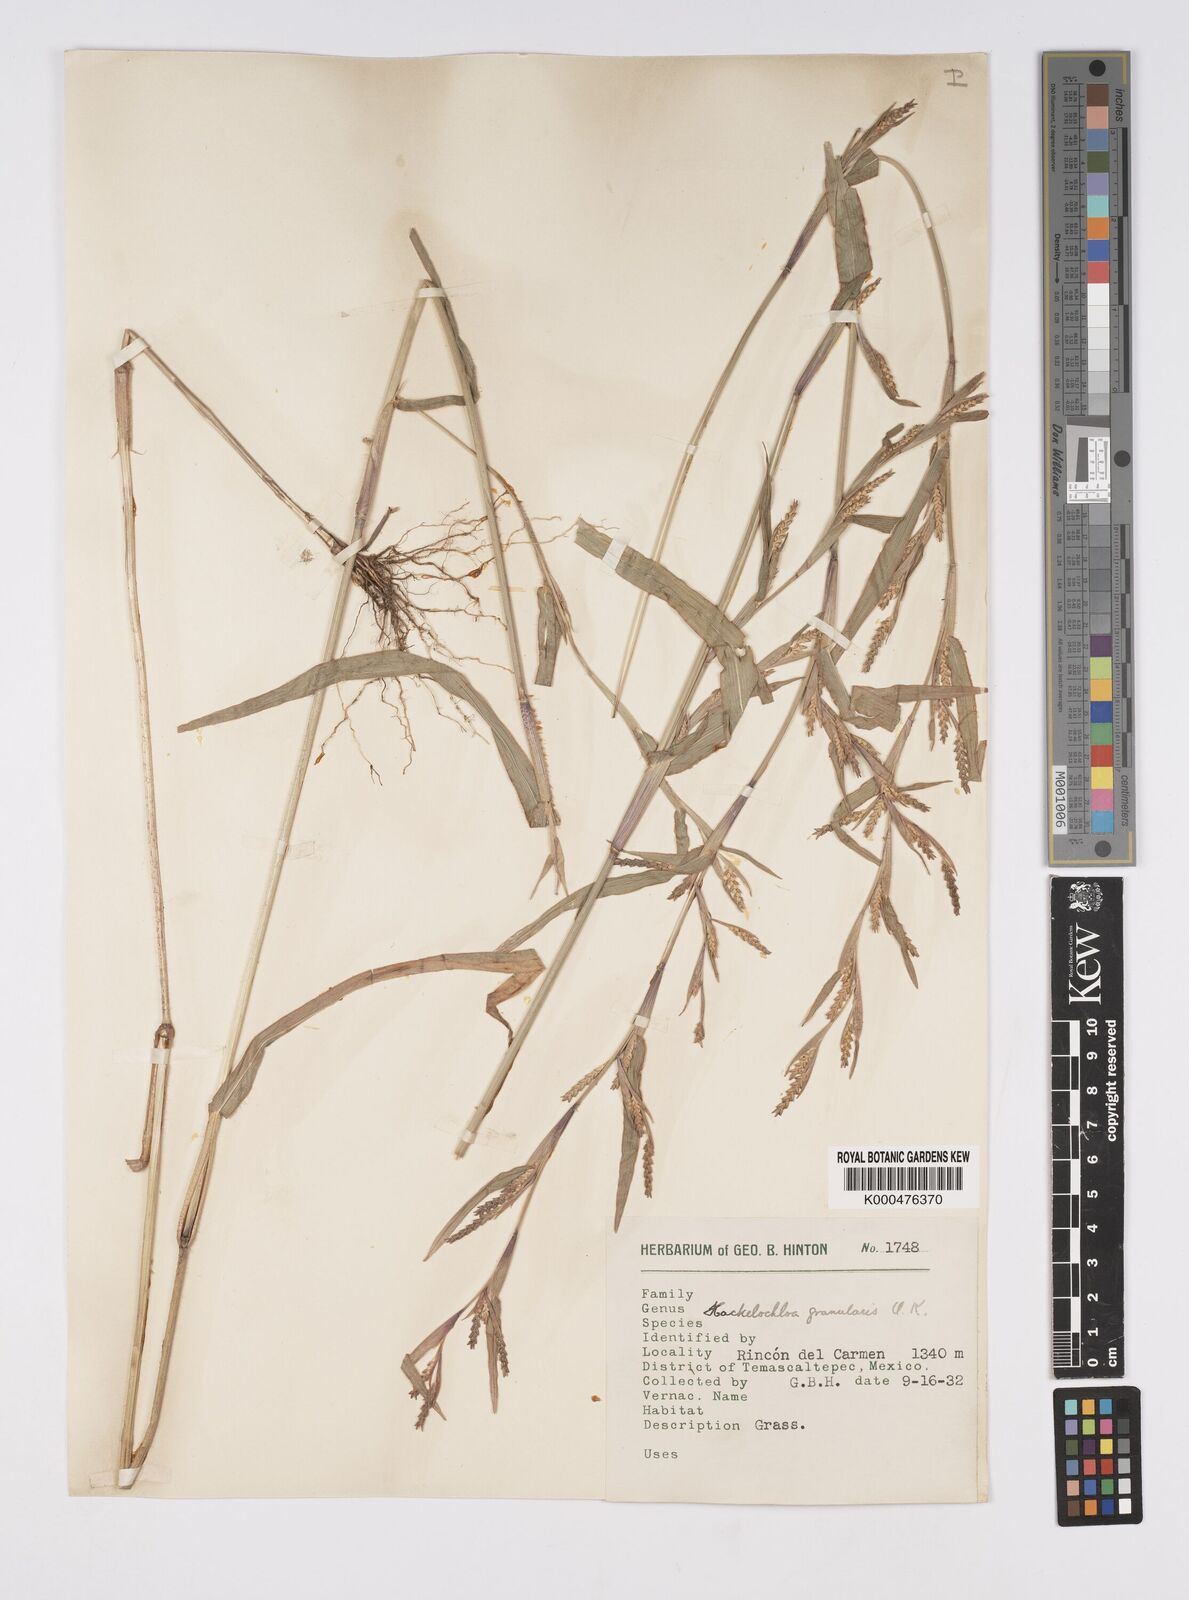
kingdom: Plantae
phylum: Tracheophyta
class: Liliopsida
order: Poales
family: Poaceae
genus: Hackelochloa
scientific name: Hackelochloa granularis
